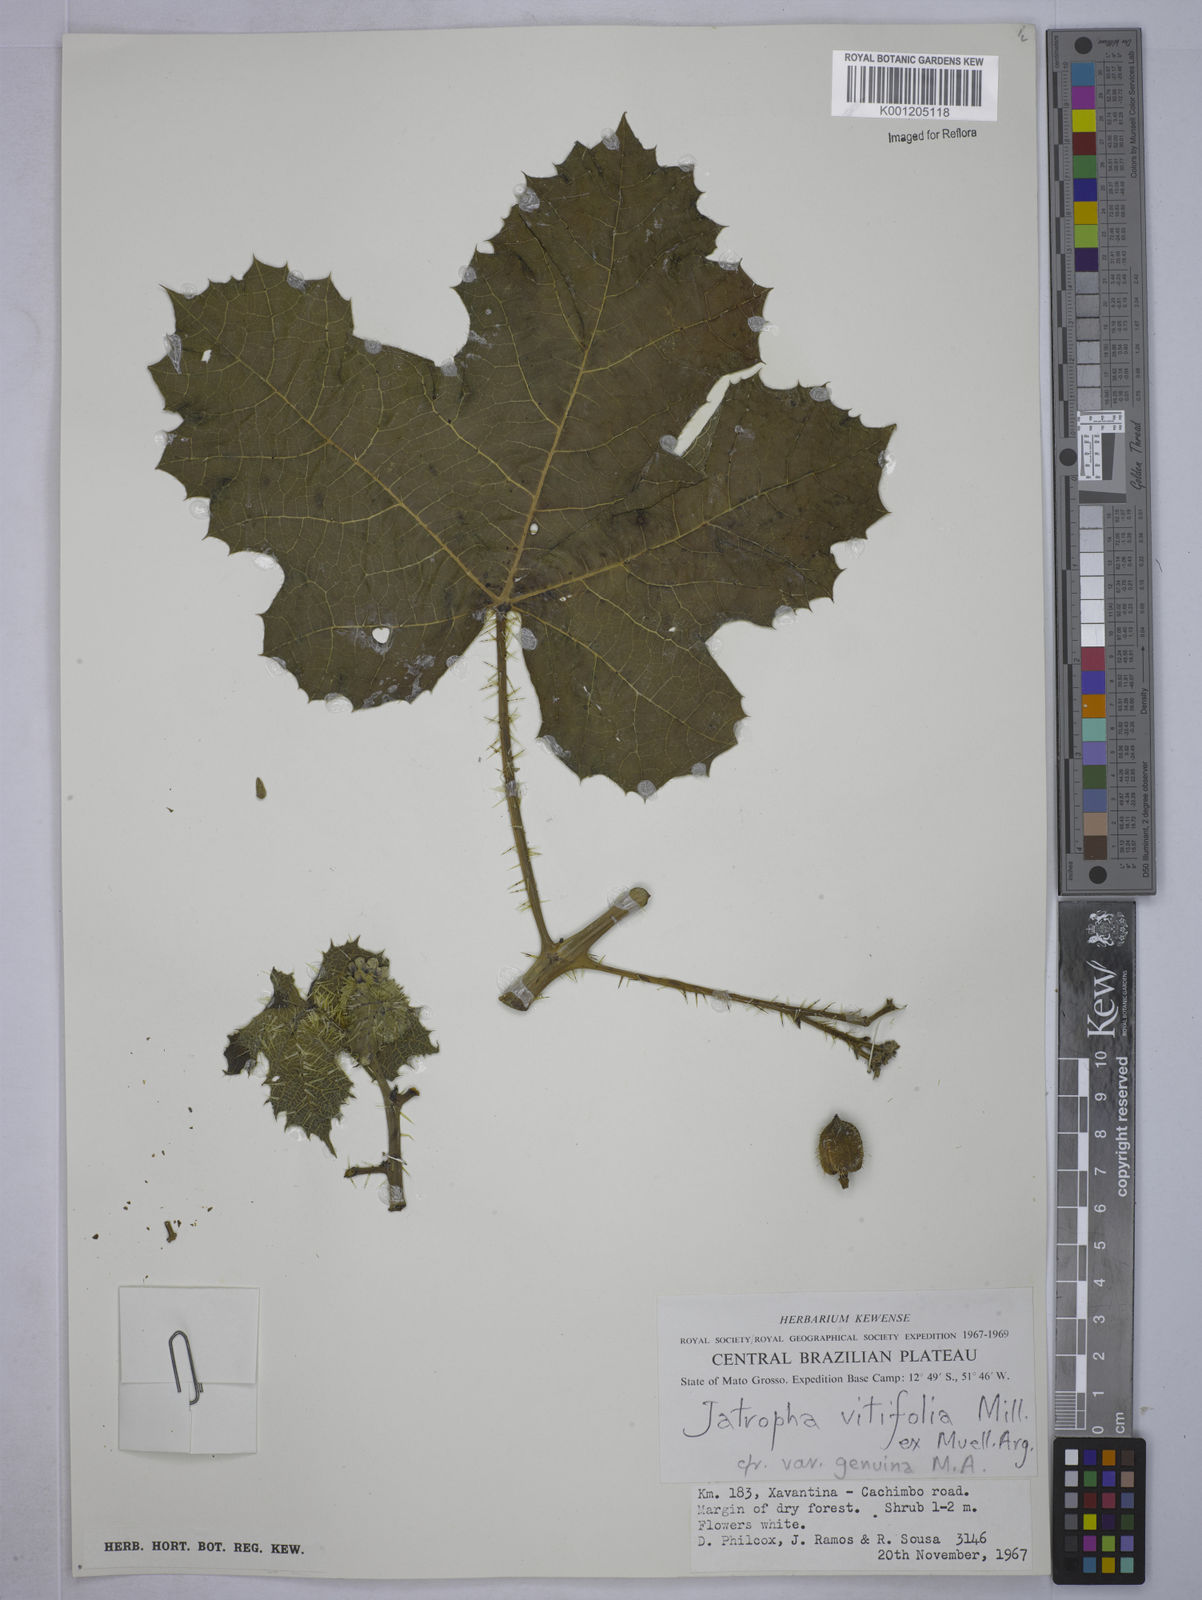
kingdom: Plantae
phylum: Tracheophyta
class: Magnoliopsida
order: Malpighiales
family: Euphorbiaceae
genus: Cnidoscolus
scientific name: Cnidoscolus vitifolius
